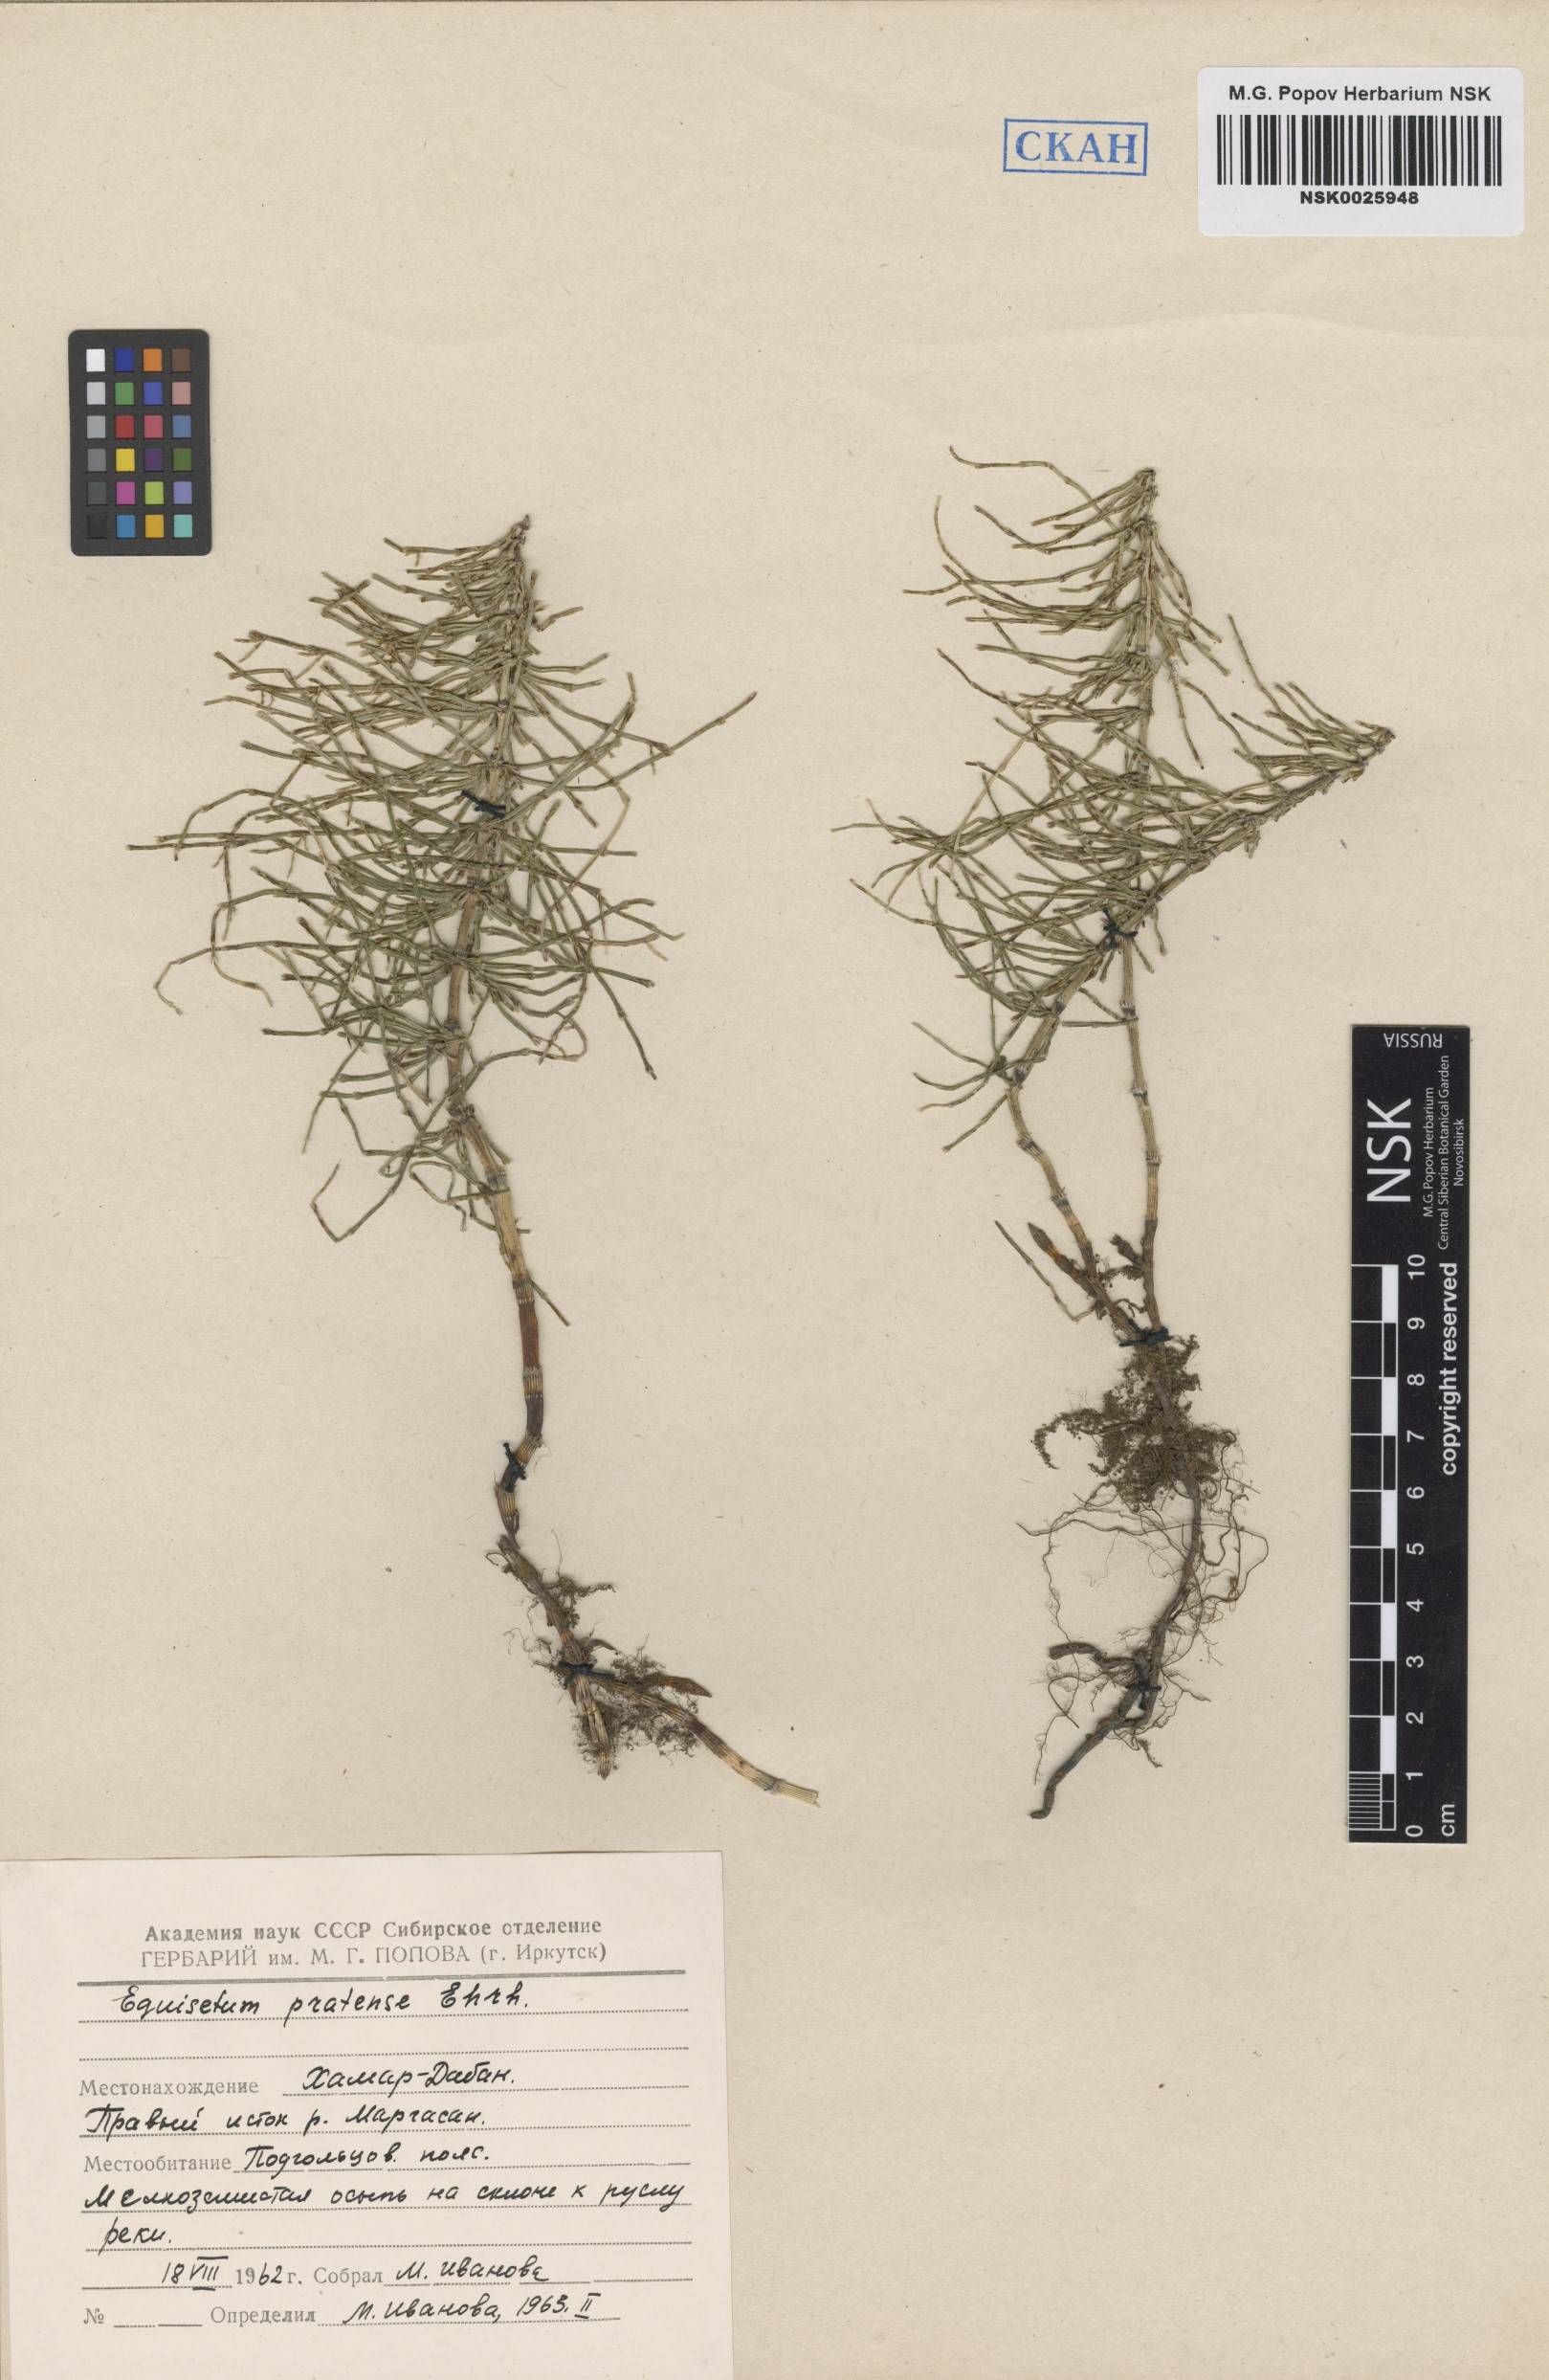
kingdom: Plantae
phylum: Tracheophyta
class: Polypodiopsida
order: Equisetales
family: Equisetaceae
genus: Equisetum
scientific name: Equisetum pratense
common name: Meadow horsetail
